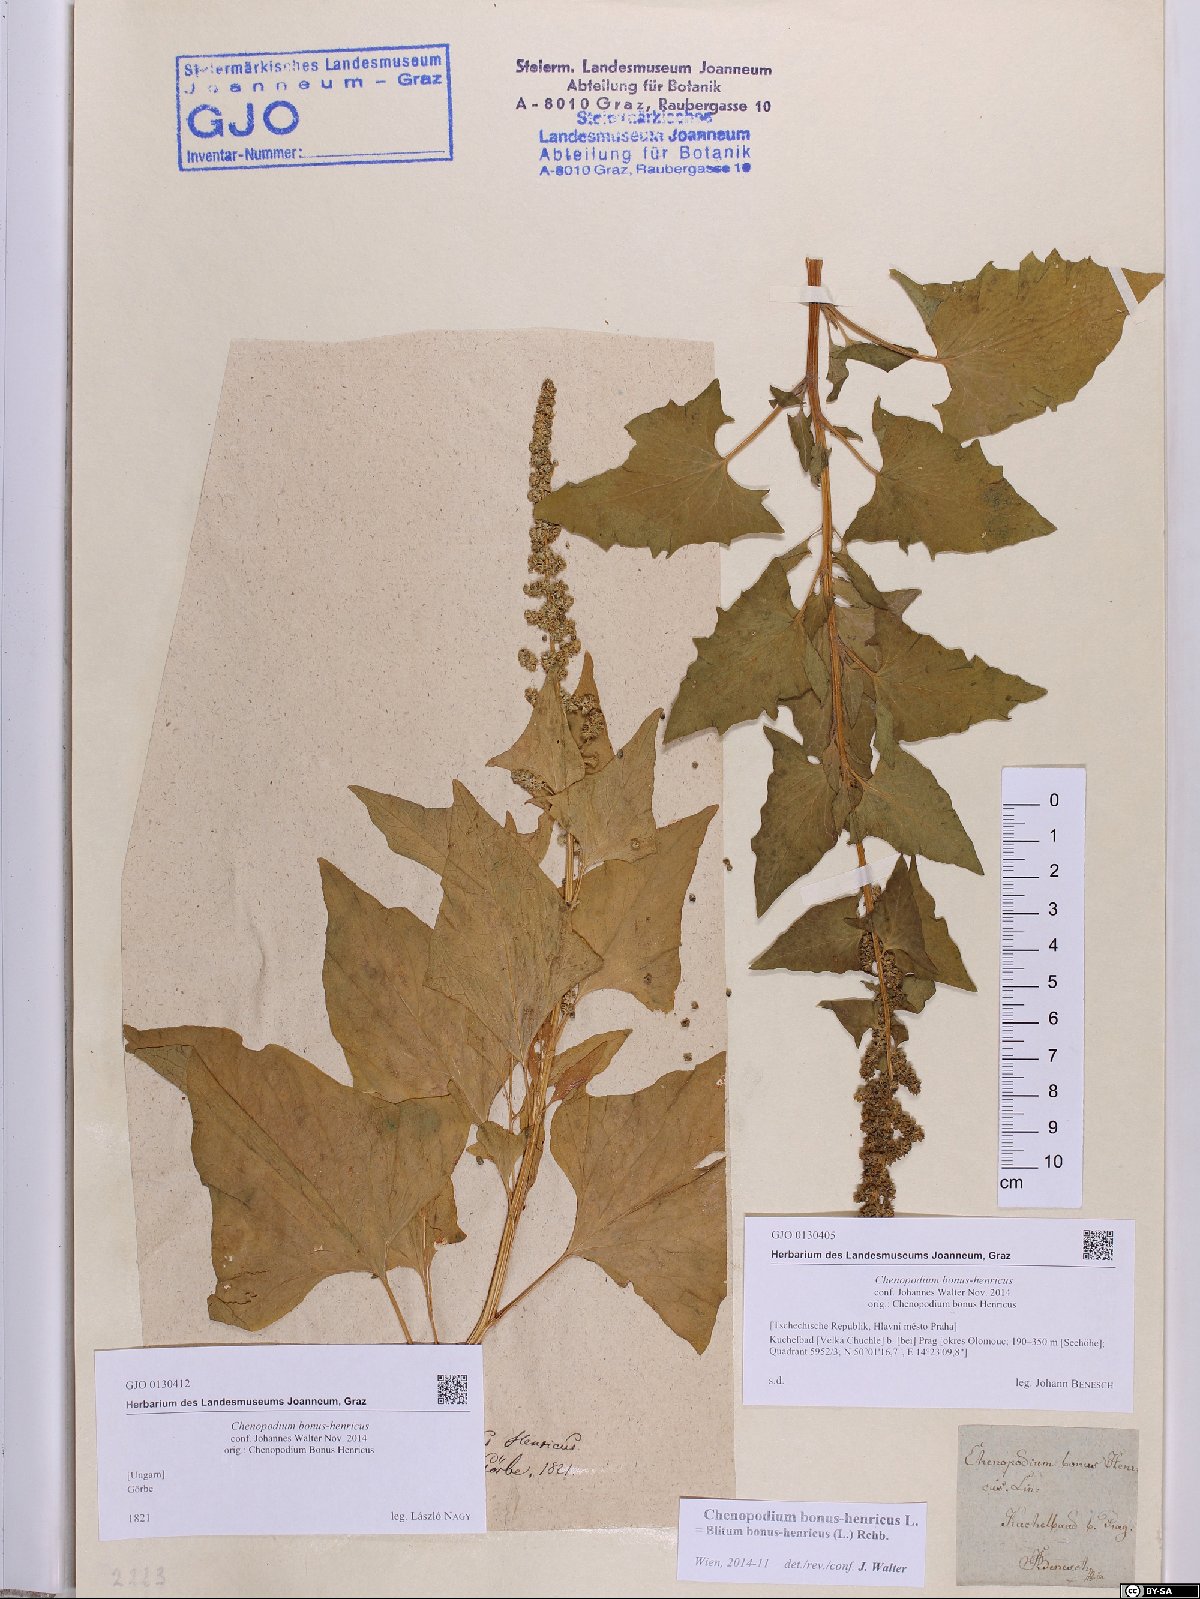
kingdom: Plantae
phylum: Tracheophyta
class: Magnoliopsida
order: Caryophyllales
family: Amaranthaceae
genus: Blitum
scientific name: Blitum bonus-henricus
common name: Good king henry
